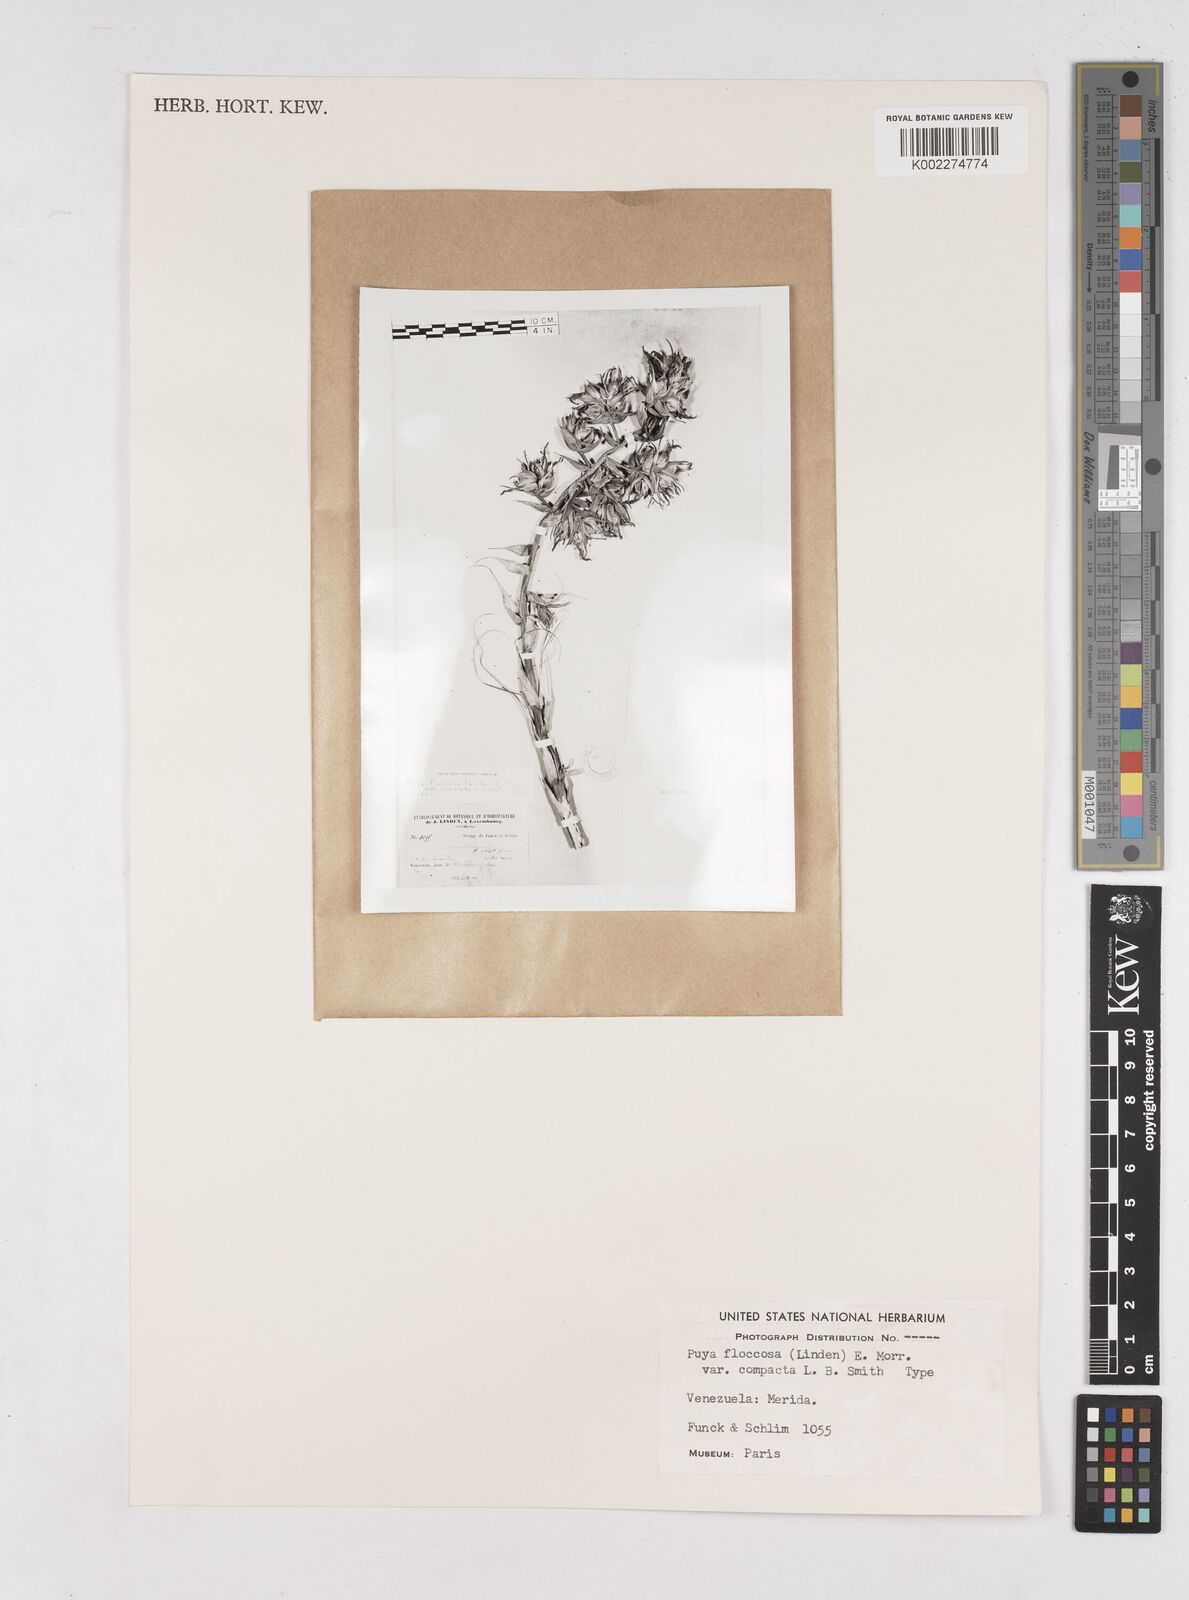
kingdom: Plantae
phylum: Tracheophyta
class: Liliopsida
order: Poales
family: Bromeliaceae
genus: Puya
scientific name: Puya floccosa
